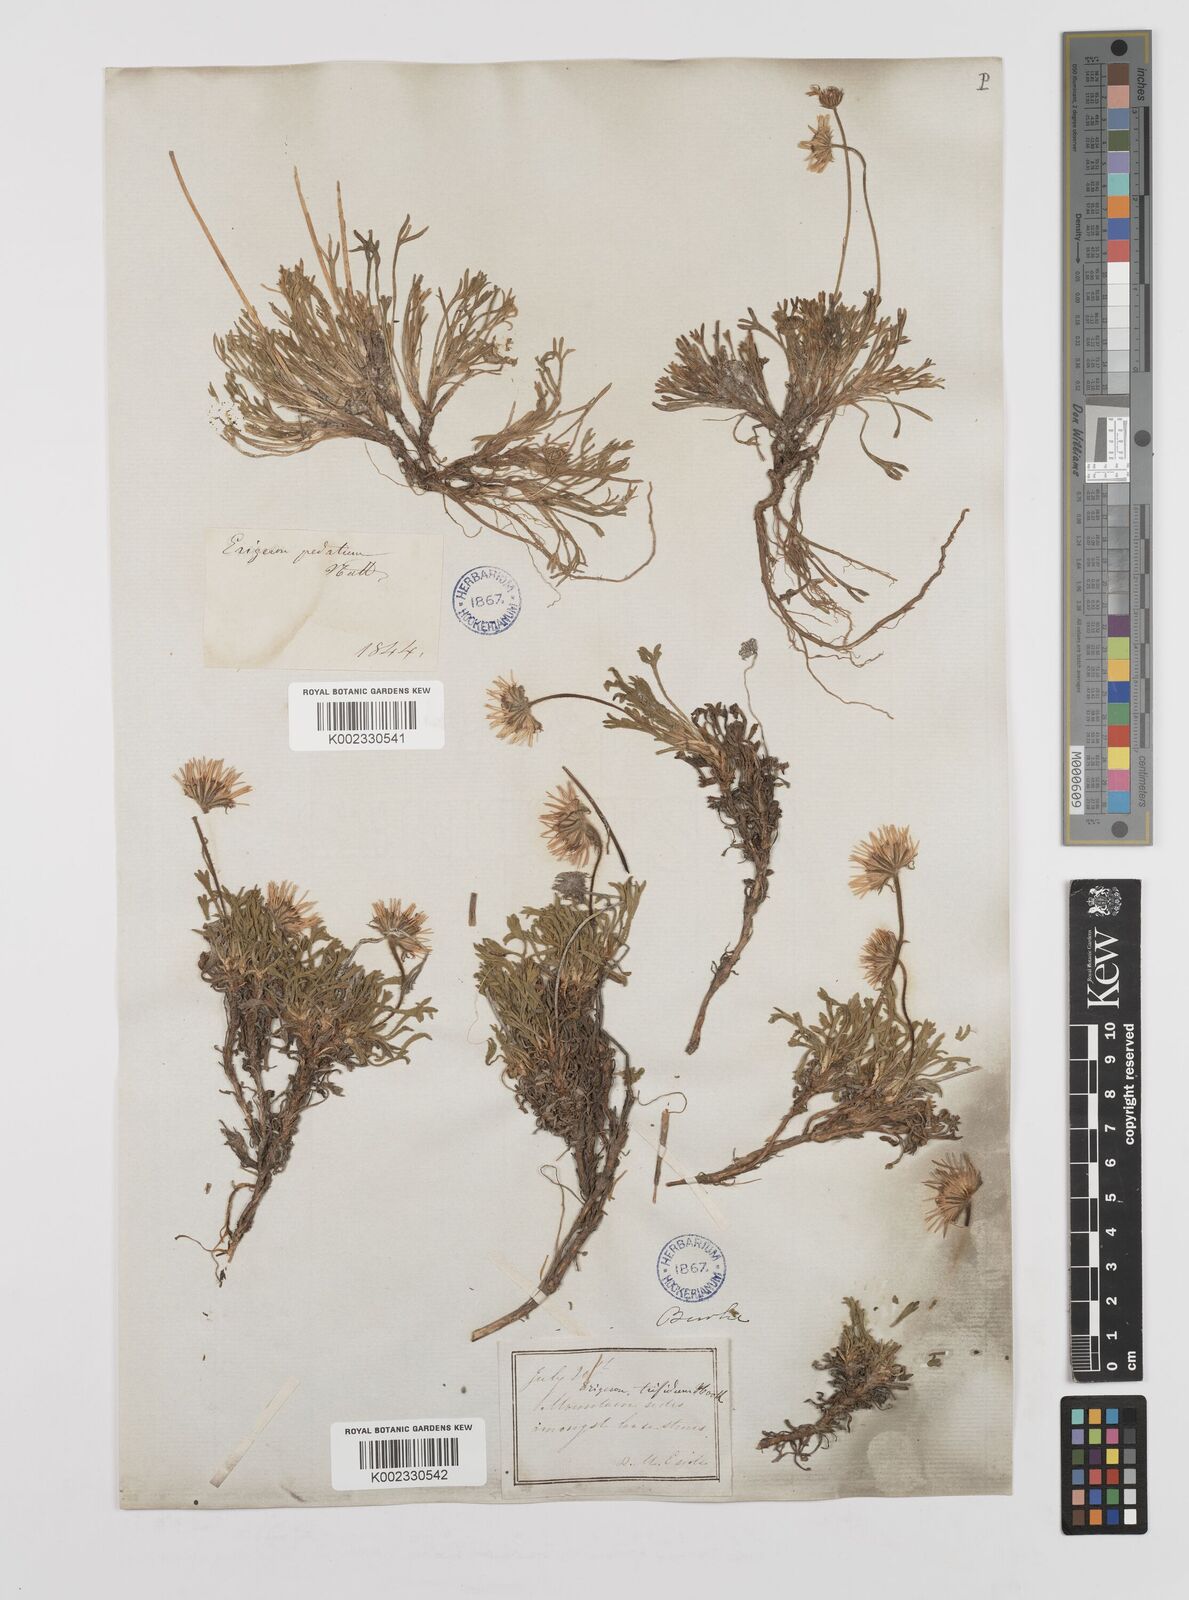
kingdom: Plantae
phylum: Tracheophyta
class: Magnoliopsida
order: Asterales
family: Asteraceae
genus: Erigeron
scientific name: Erigeron trifidus
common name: Alberta fleabane
